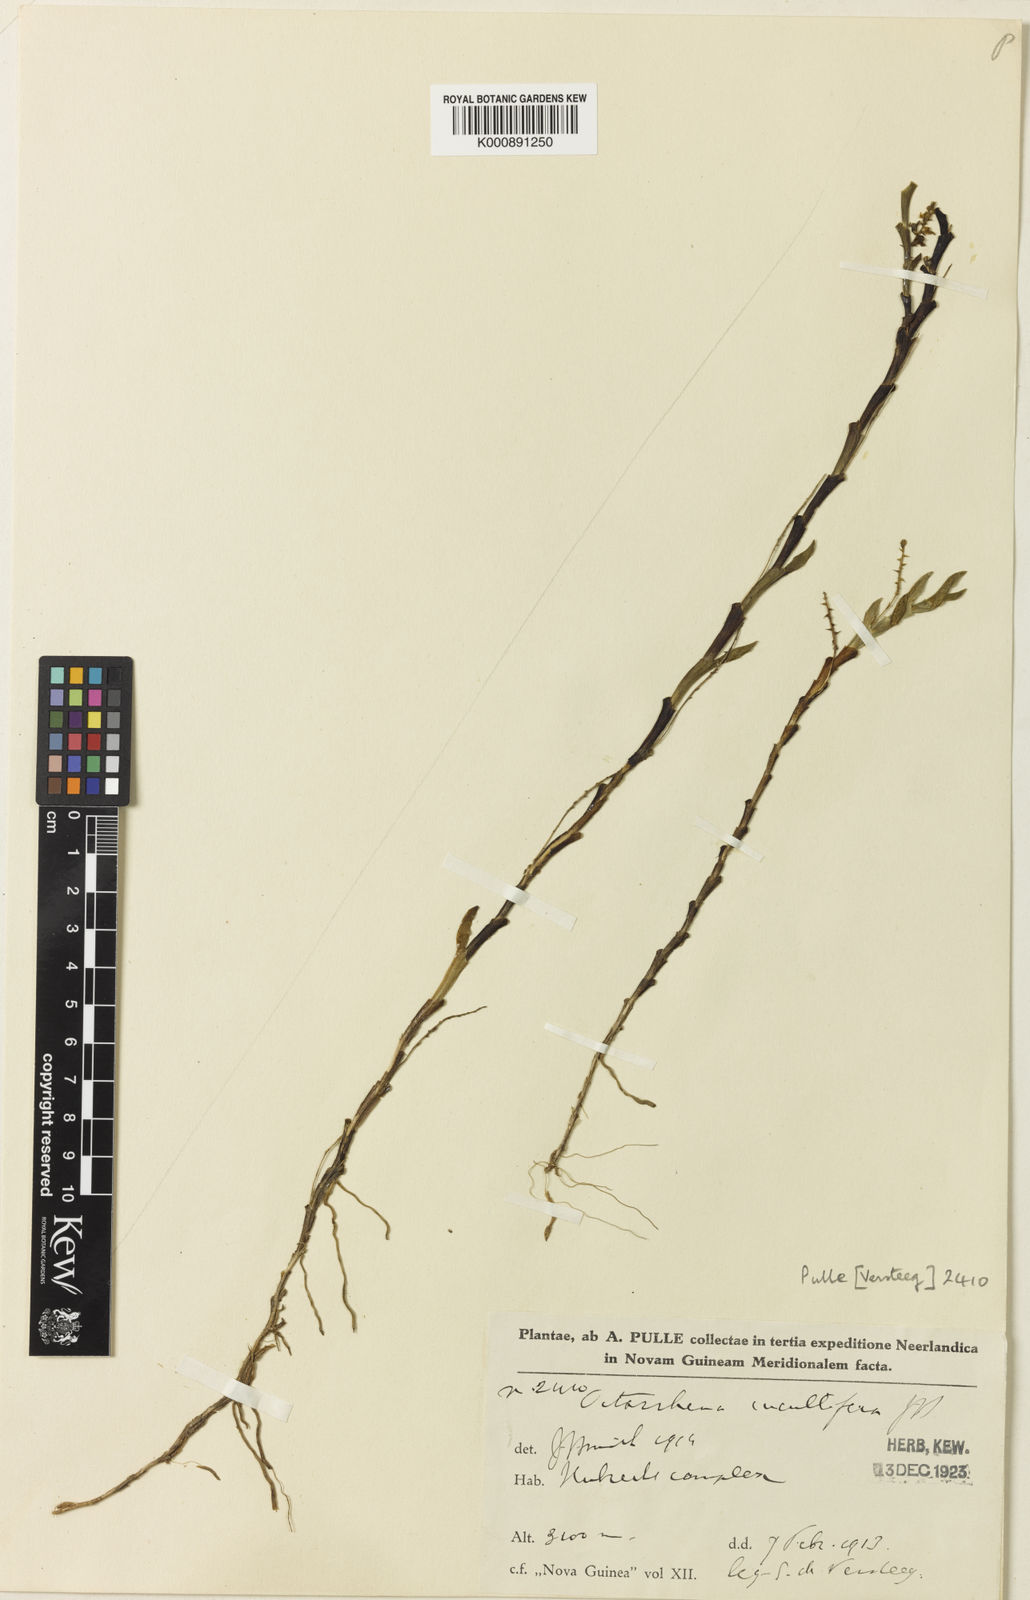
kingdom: Plantae
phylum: Tracheophyta
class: Liliopsida
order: Asparagales
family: Orchidaceae
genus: Octarrhena
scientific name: Octarrhena cucullifera
